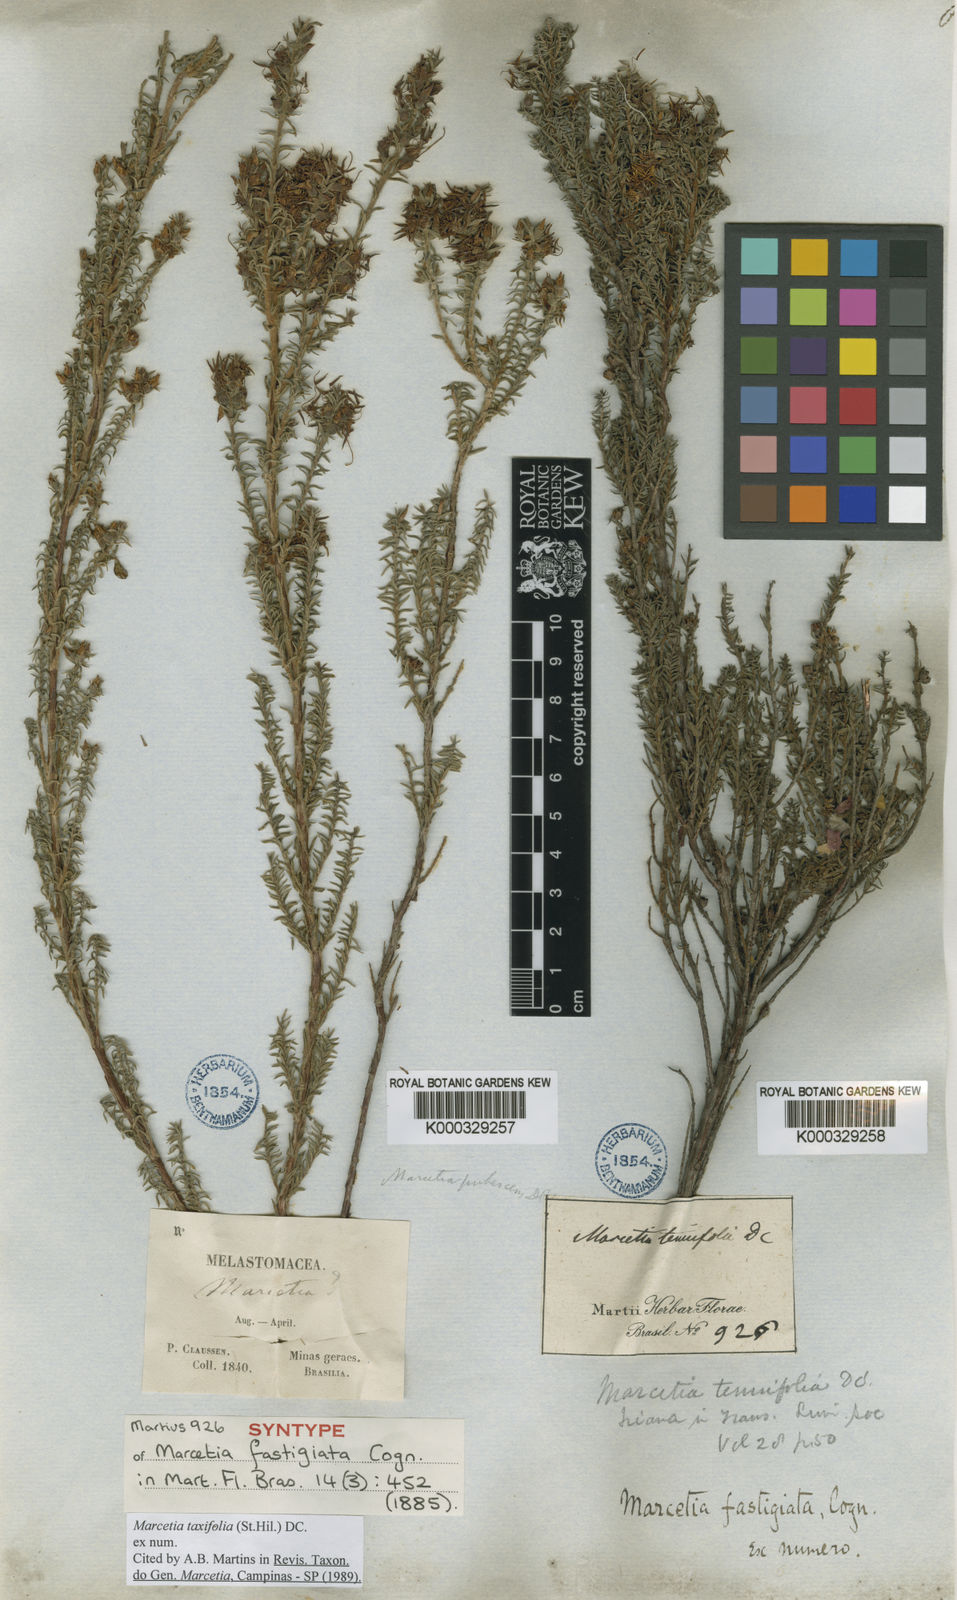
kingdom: Plantae
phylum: Tracheophyta
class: Magnoliopsida
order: Myrtales
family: Melastomataceae
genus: Marcetia
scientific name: Marcetia taxifolia
